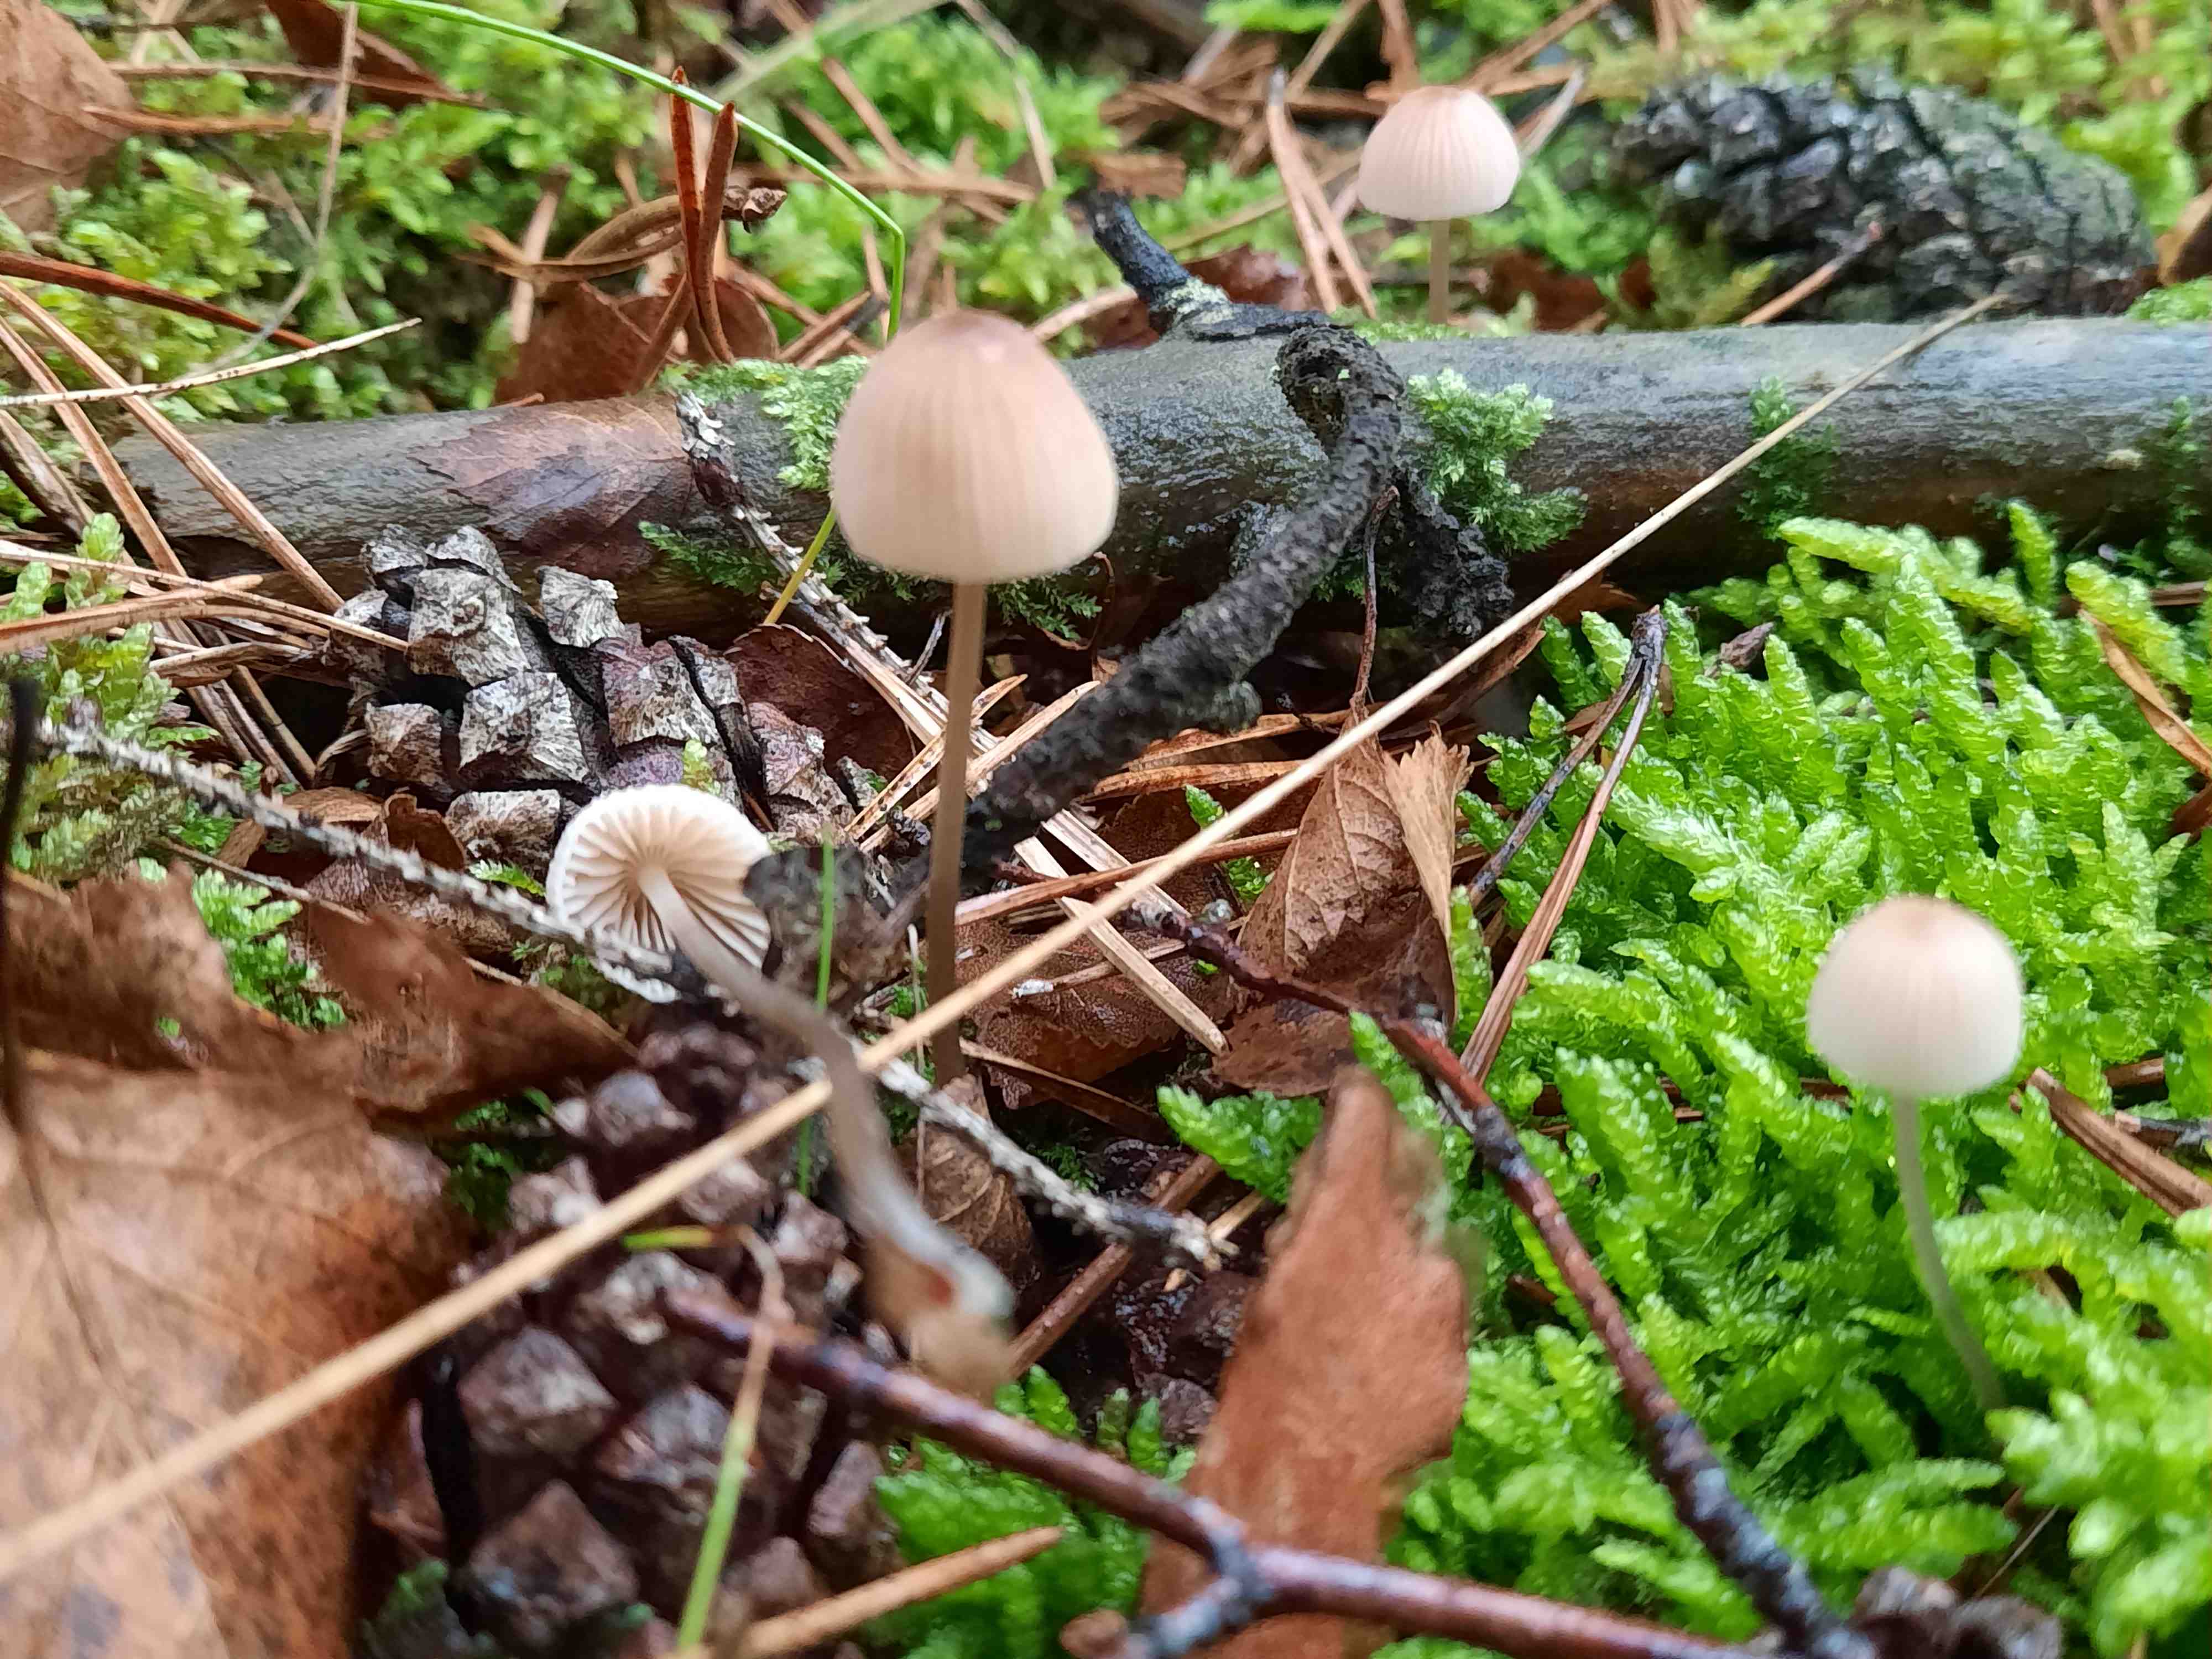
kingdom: Fungi
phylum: Basidiomycota
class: Agaricomycetes
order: Agaricales
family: Mycenaceae
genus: Mycena
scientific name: Mycena metata
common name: rødlig huesvamp
